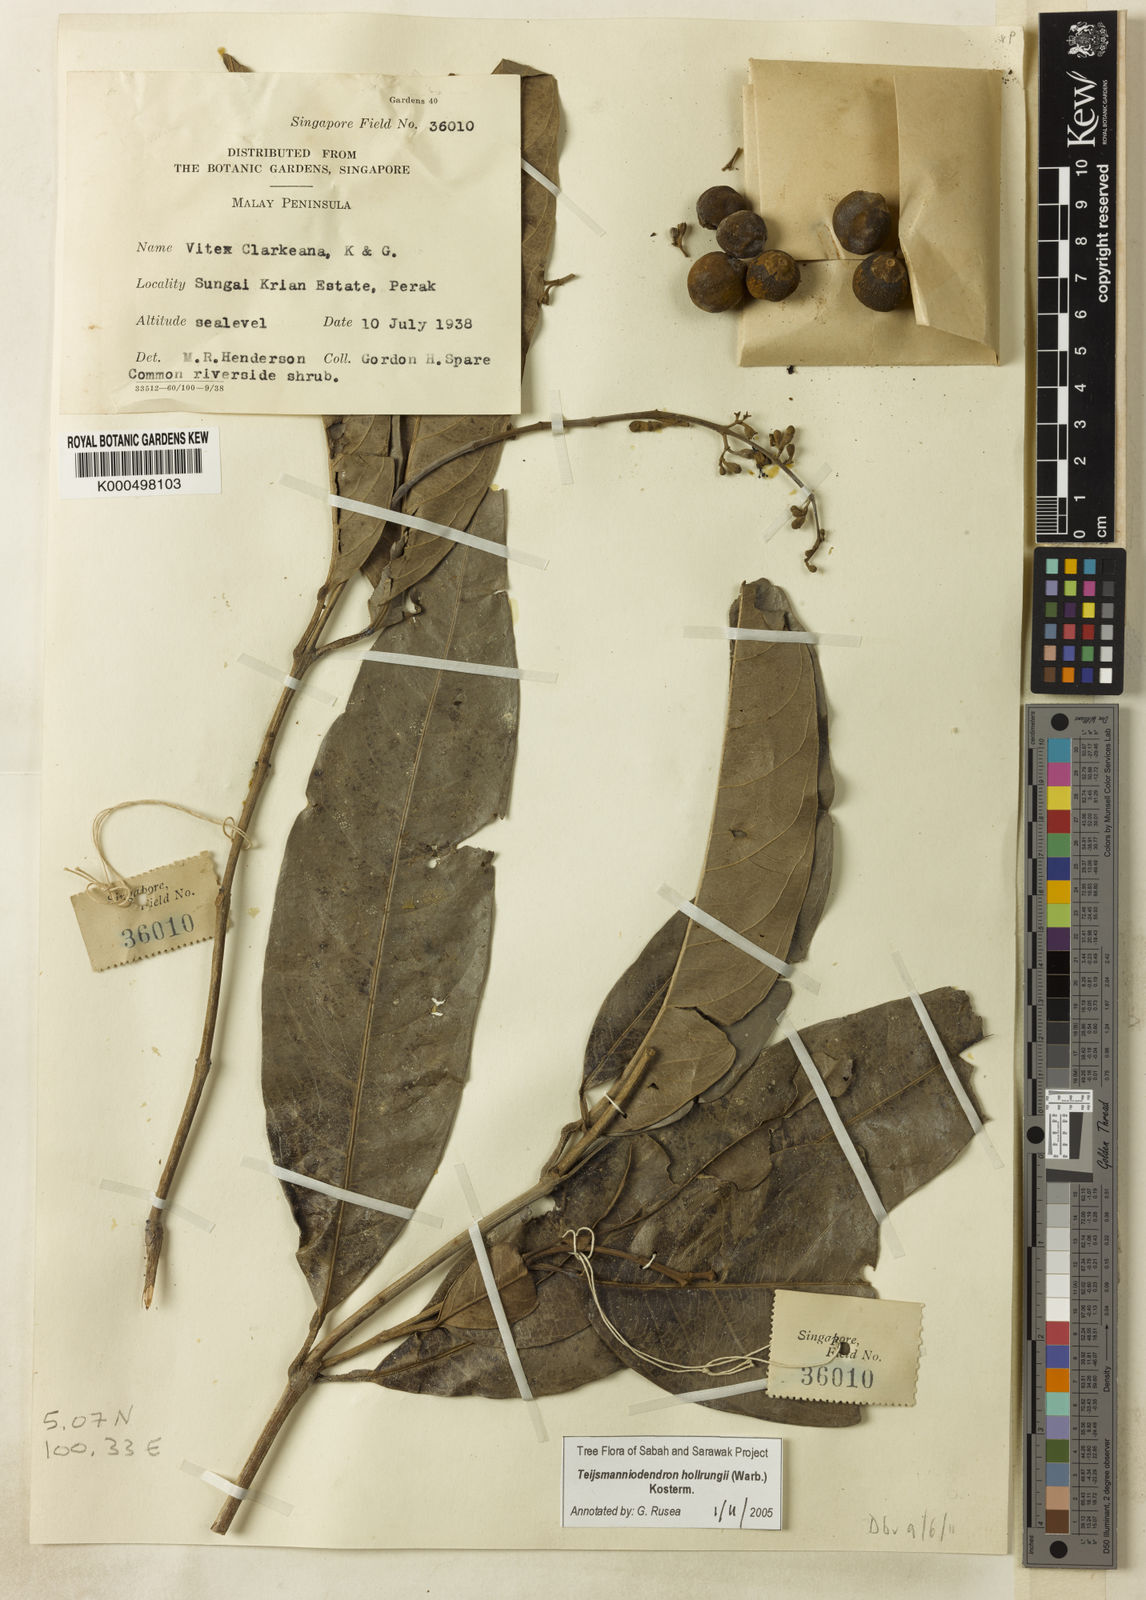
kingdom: Plantae
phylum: Tracheophyta
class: Magnoliopsida
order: Lamiales
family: Lamiaceae
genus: Teijsmanniodendron
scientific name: Teijsmanniodendron hollrungii
